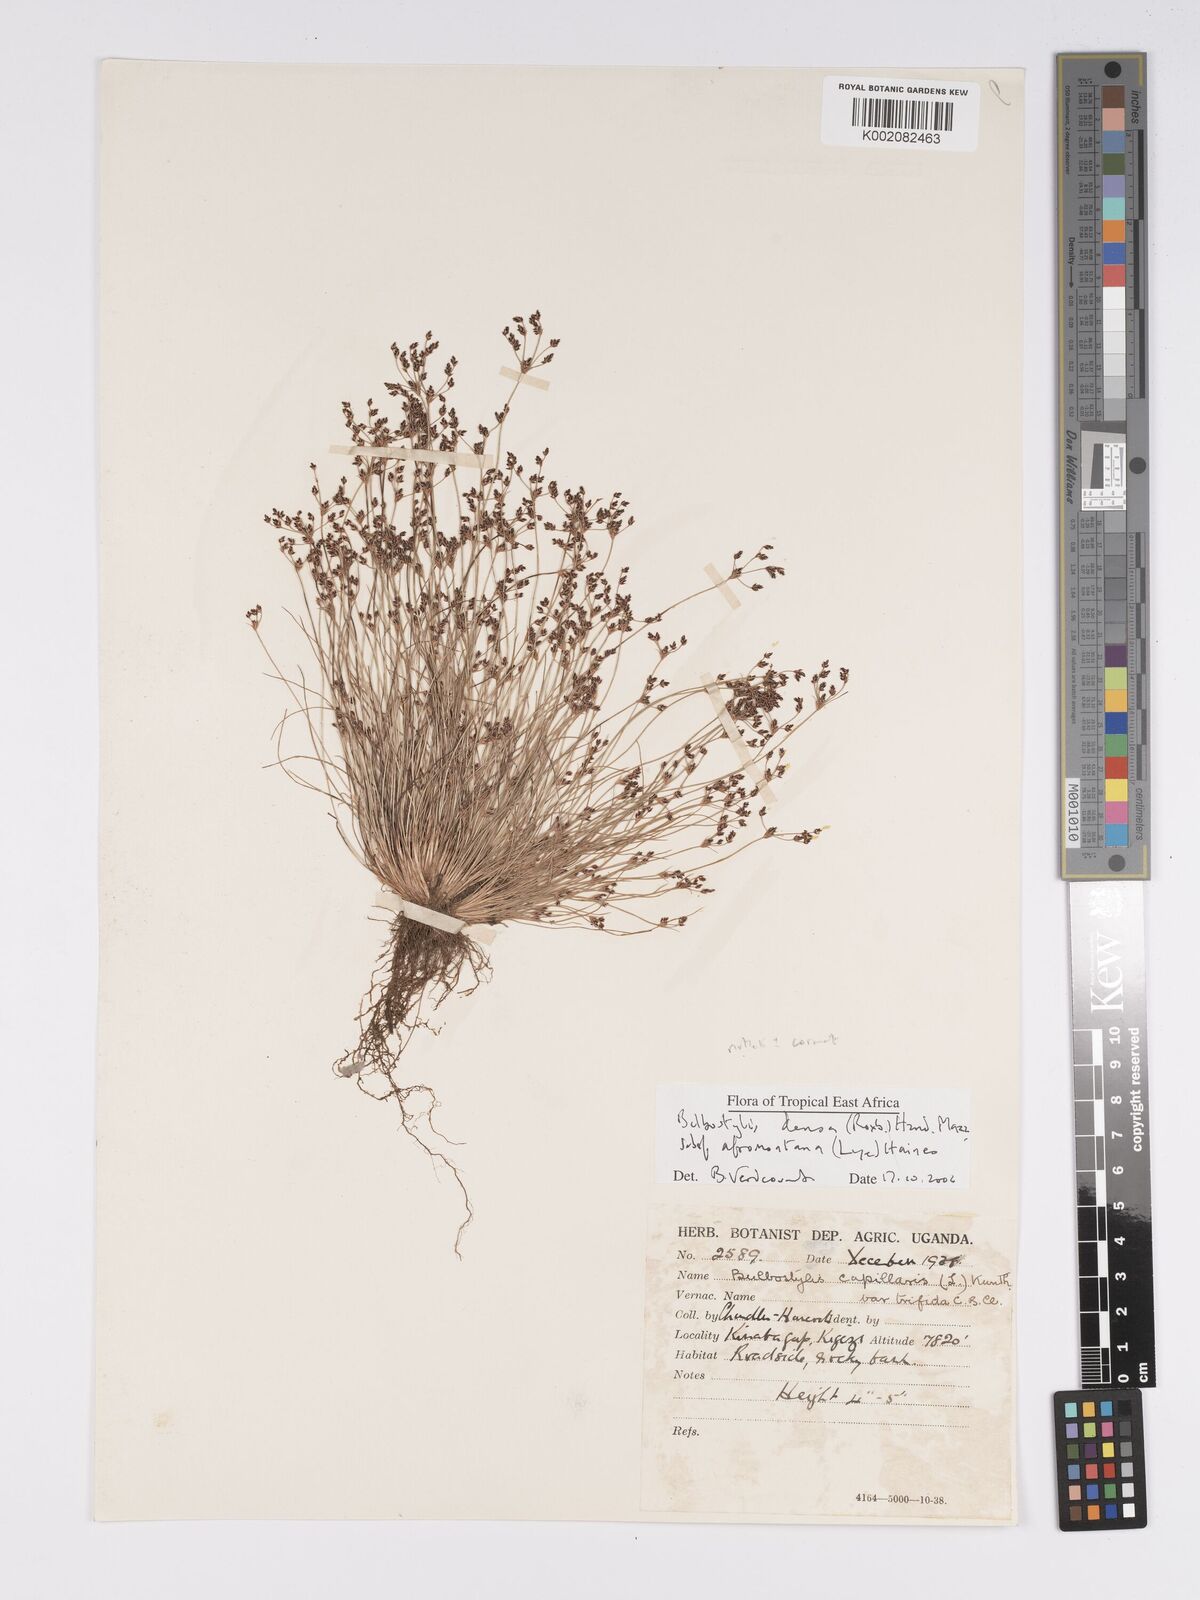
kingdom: Plantae
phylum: Tracheophyta
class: Liliopsida
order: Poales
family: Cyperaceae
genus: Bulbostylis
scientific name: Bulbostylis densa
